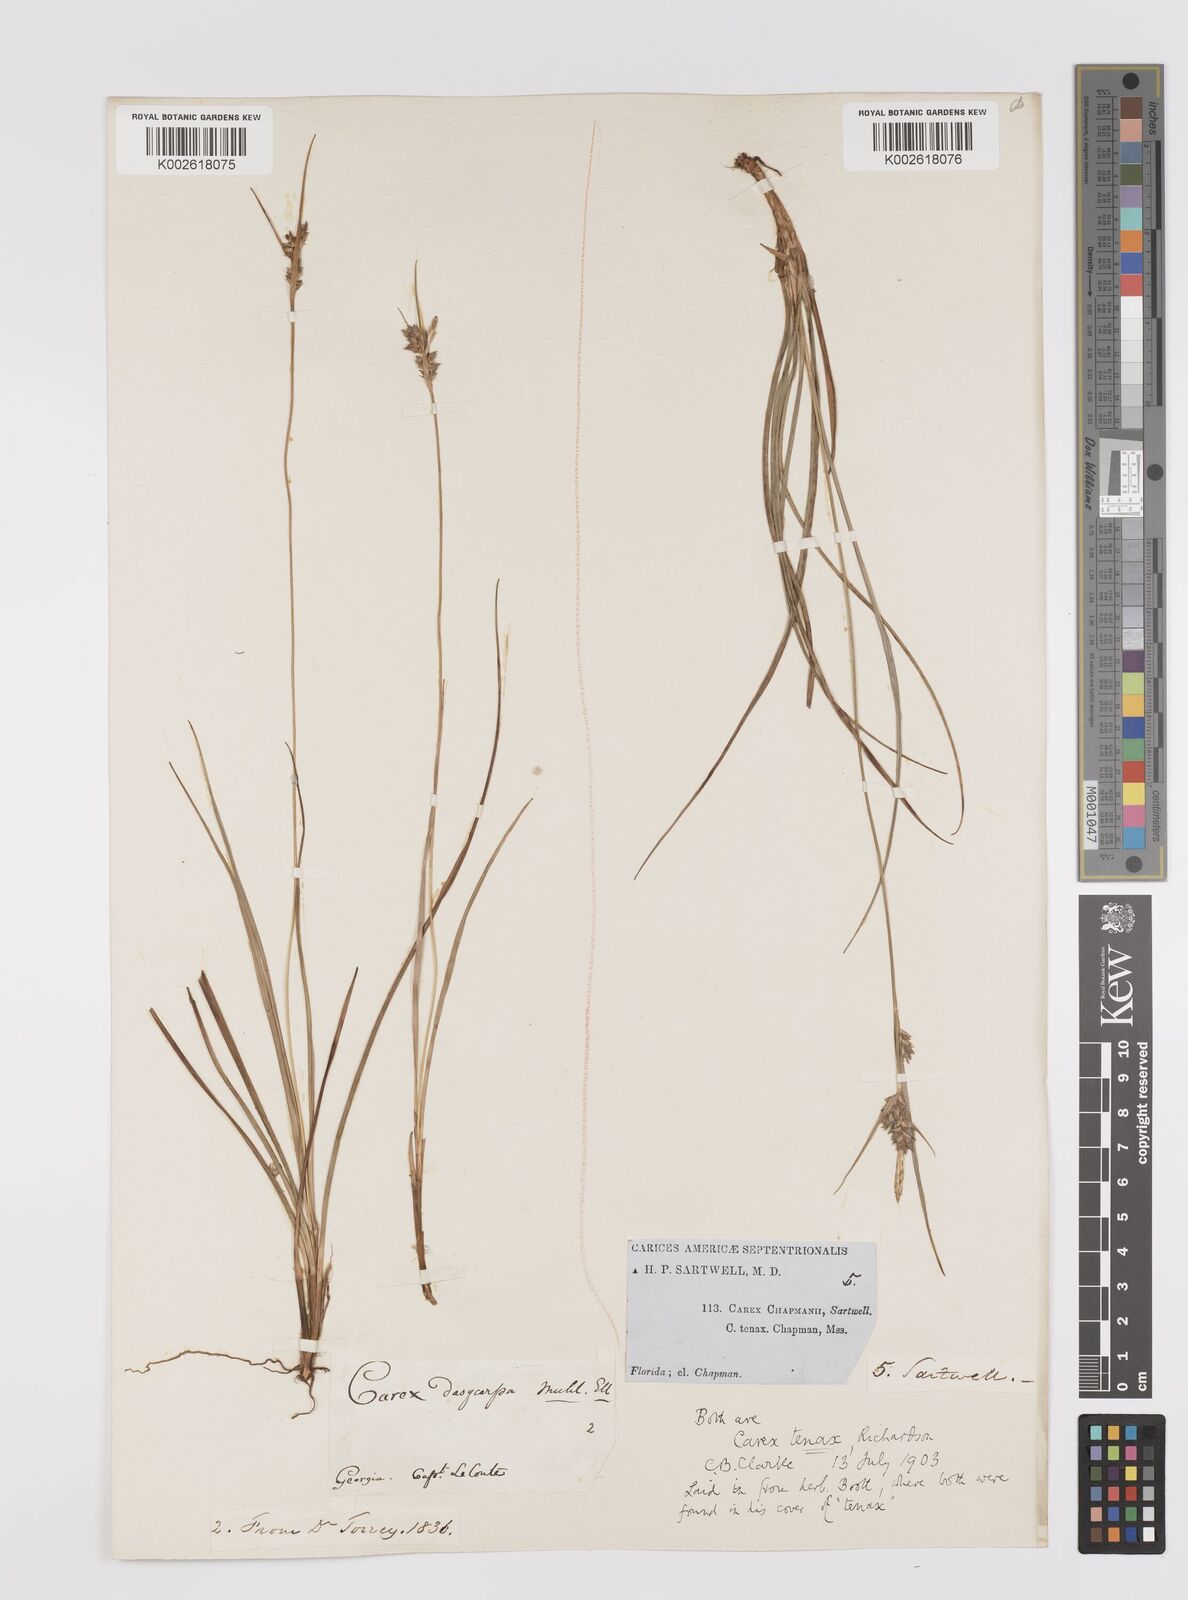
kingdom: Plantae
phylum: Tracheophyta
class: Liliopsida
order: Poales
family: Cyperaceae
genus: Carex
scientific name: Carex tenax
